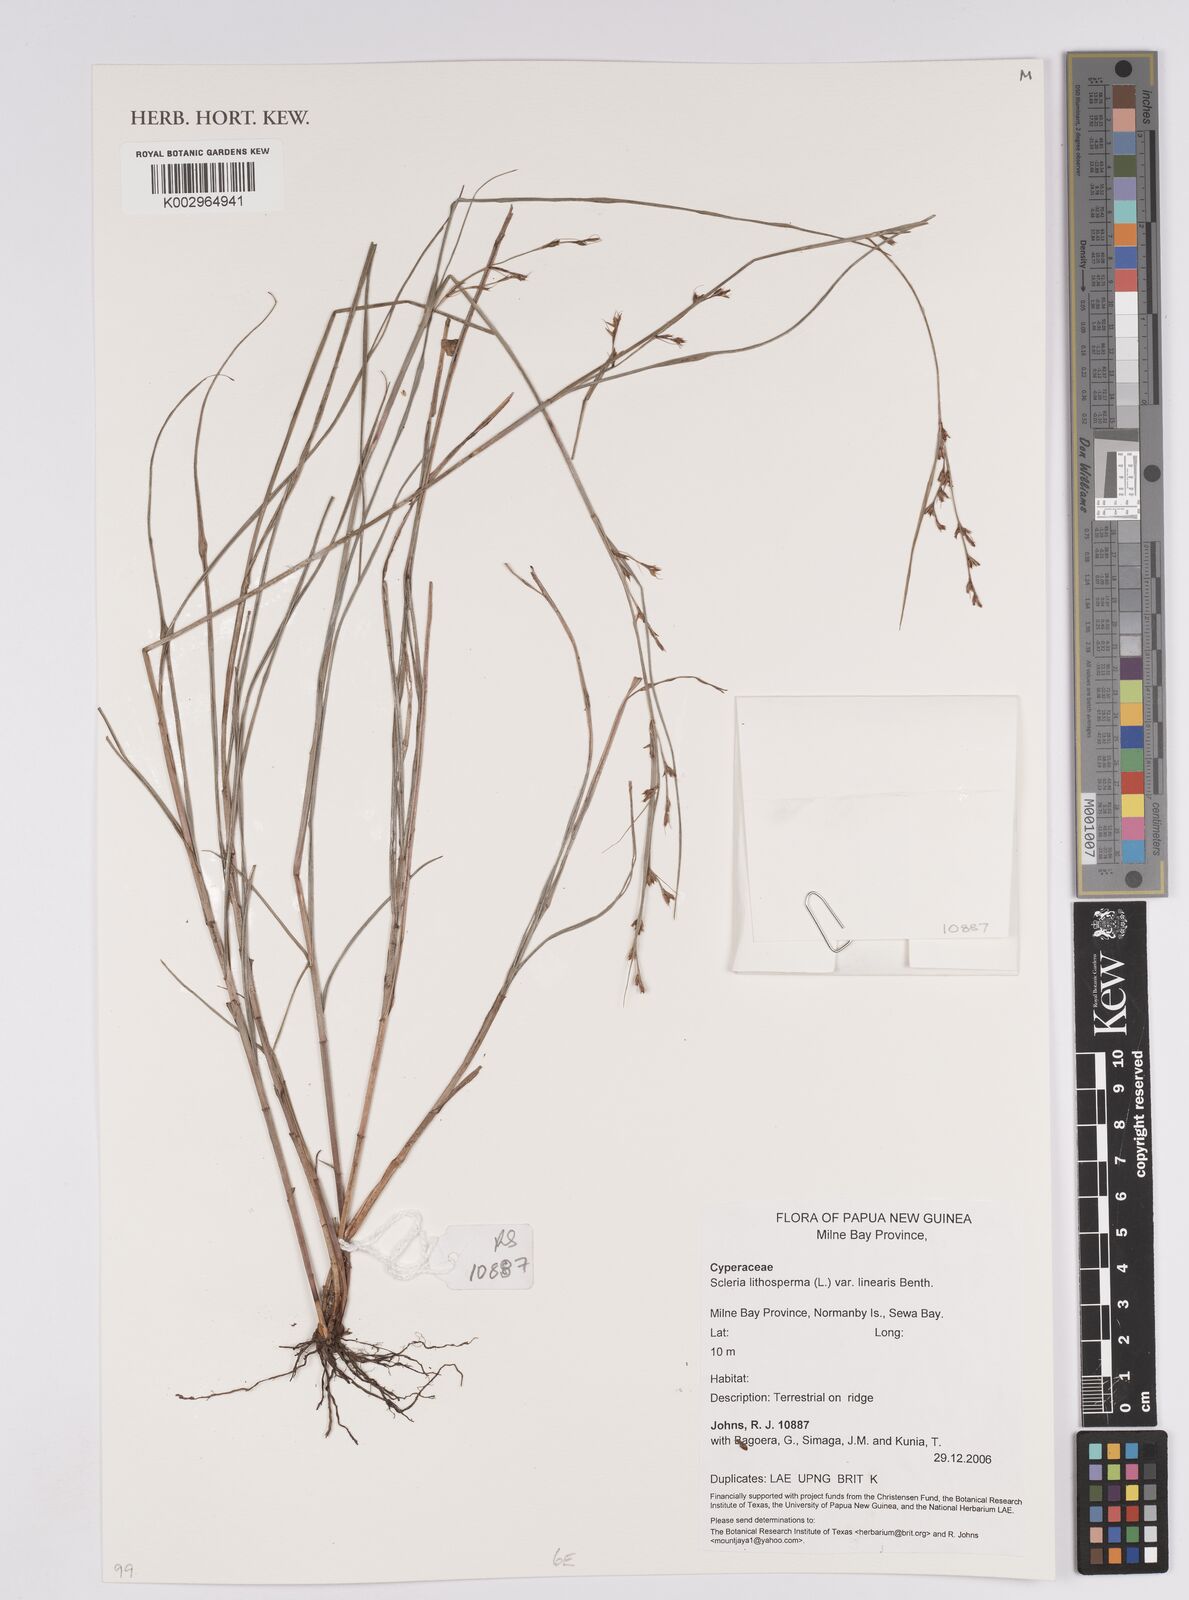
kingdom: Plantae
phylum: Tracheophyta
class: Liliopsida
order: Poales
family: Cyperaceae
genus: Scleria
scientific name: Scleria lithosperma
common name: Florida keys nut-rush
